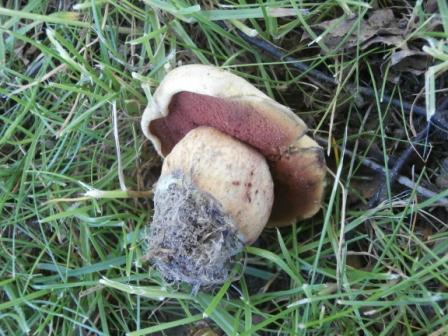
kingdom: Fungi
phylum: Basidiomycota
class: Agaricomycetes
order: Boletales
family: Boletaceae
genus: Suillellus
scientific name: Suillellus luridus
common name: netstokket indigorørhat
